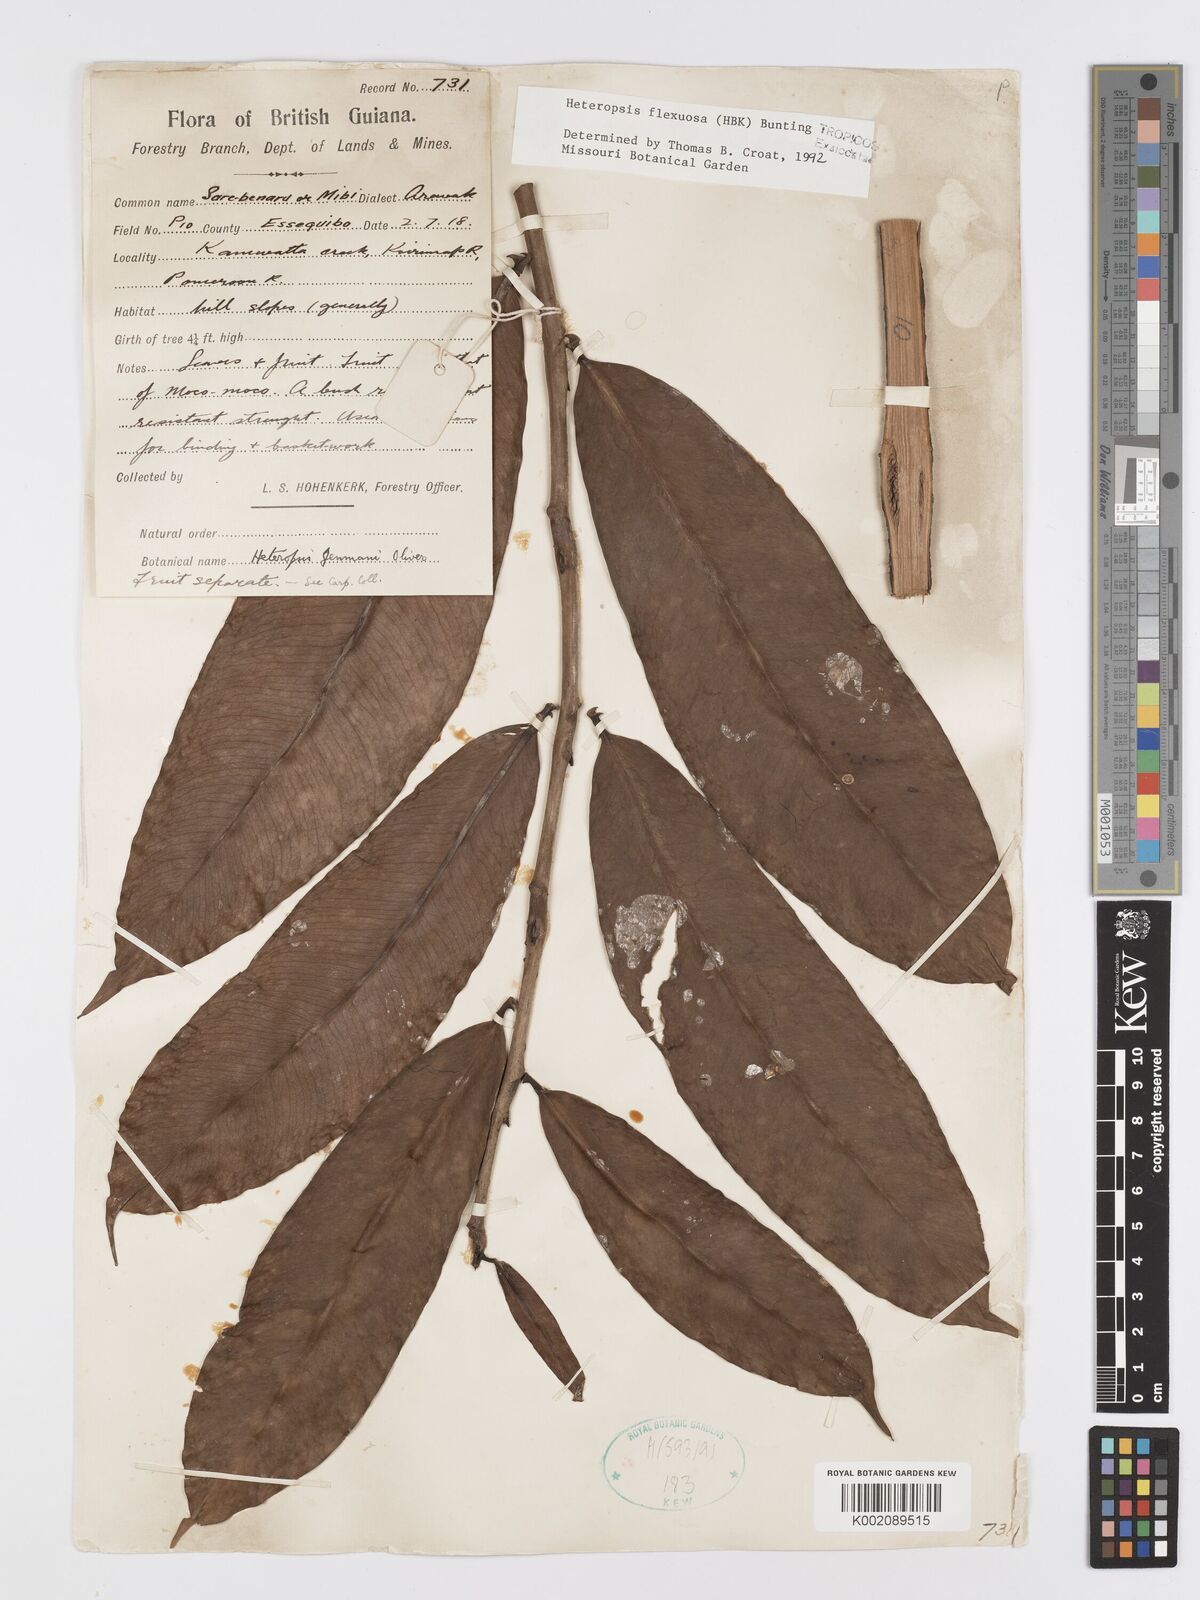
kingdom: Plantae
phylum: Tracheophyta
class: Liliopsida
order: Alismatales
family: Araceae
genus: Heteropsis
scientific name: Heteropsis flexuosa
